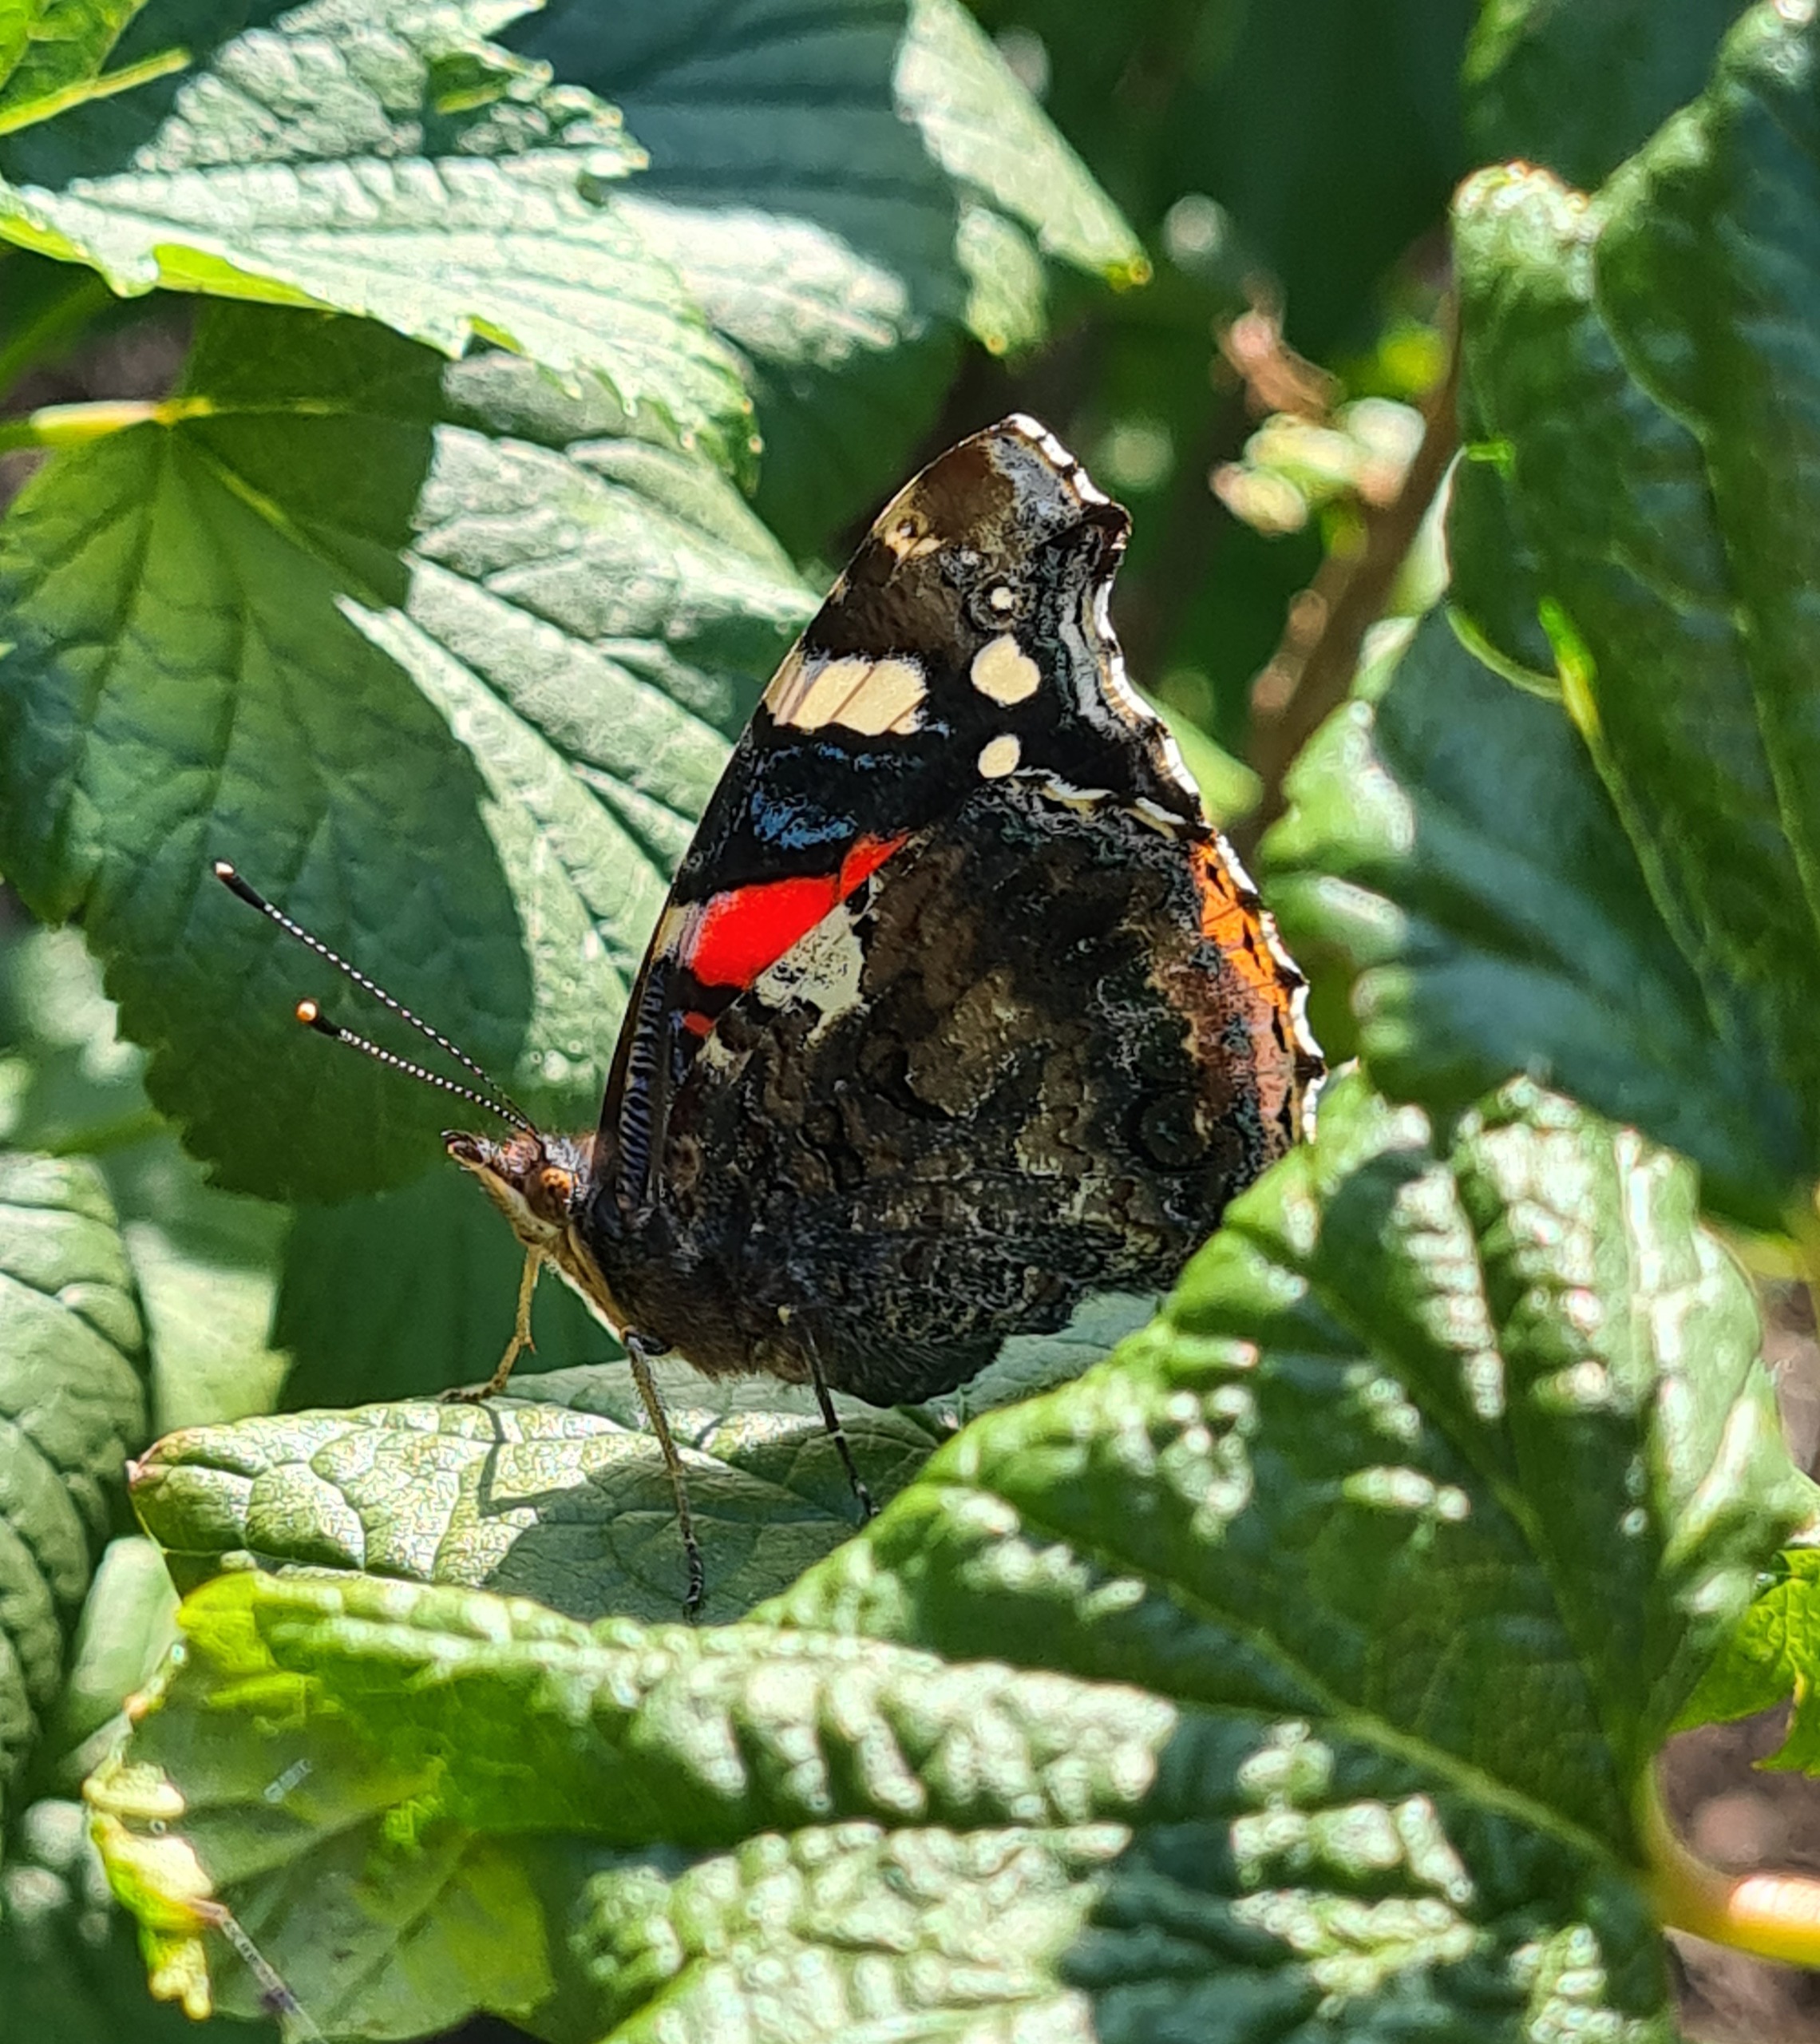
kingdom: Animalia
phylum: Arthropoda
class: Insecta
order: Lepidoptera
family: Nymphalidae
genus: Vanessa
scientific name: Vanessa atalanta
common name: Admiral
